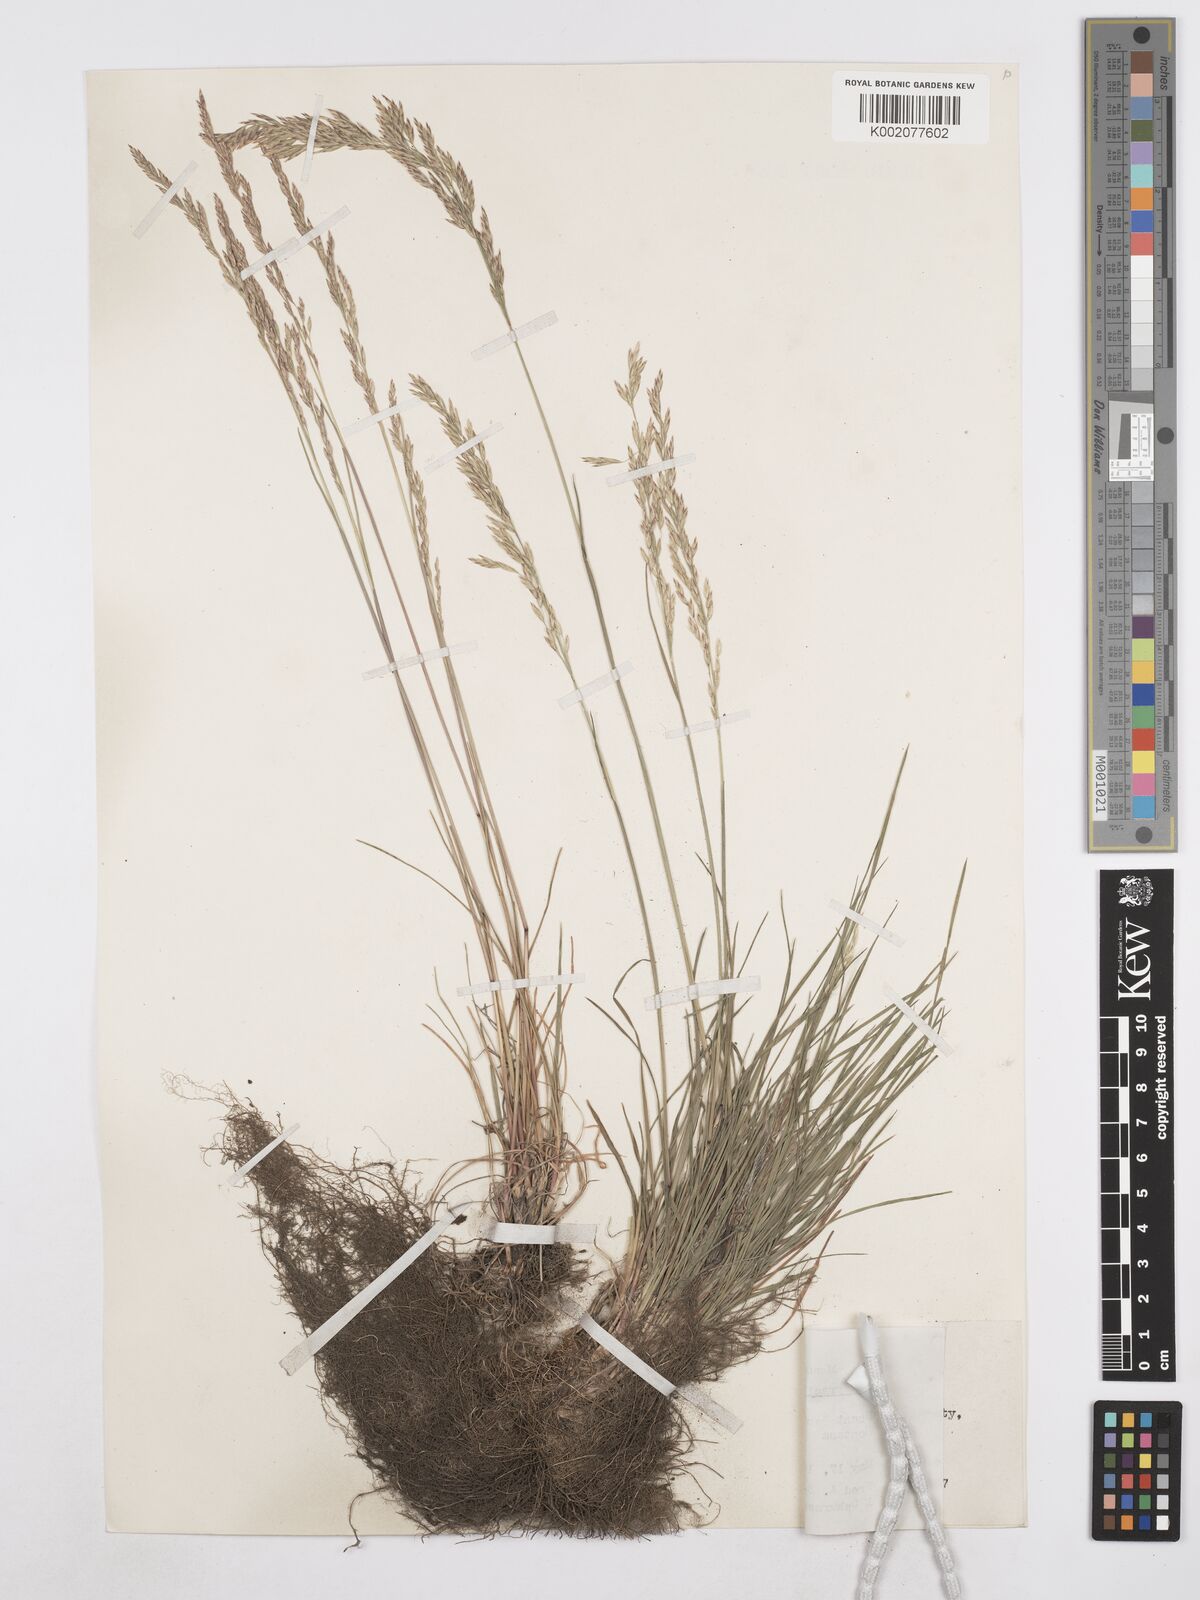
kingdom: Plantae
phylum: Tracheophyta
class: Liliopsida
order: Poales
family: Poaceae
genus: Poa
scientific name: Poa secunda
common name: Sandberg bluegrass
